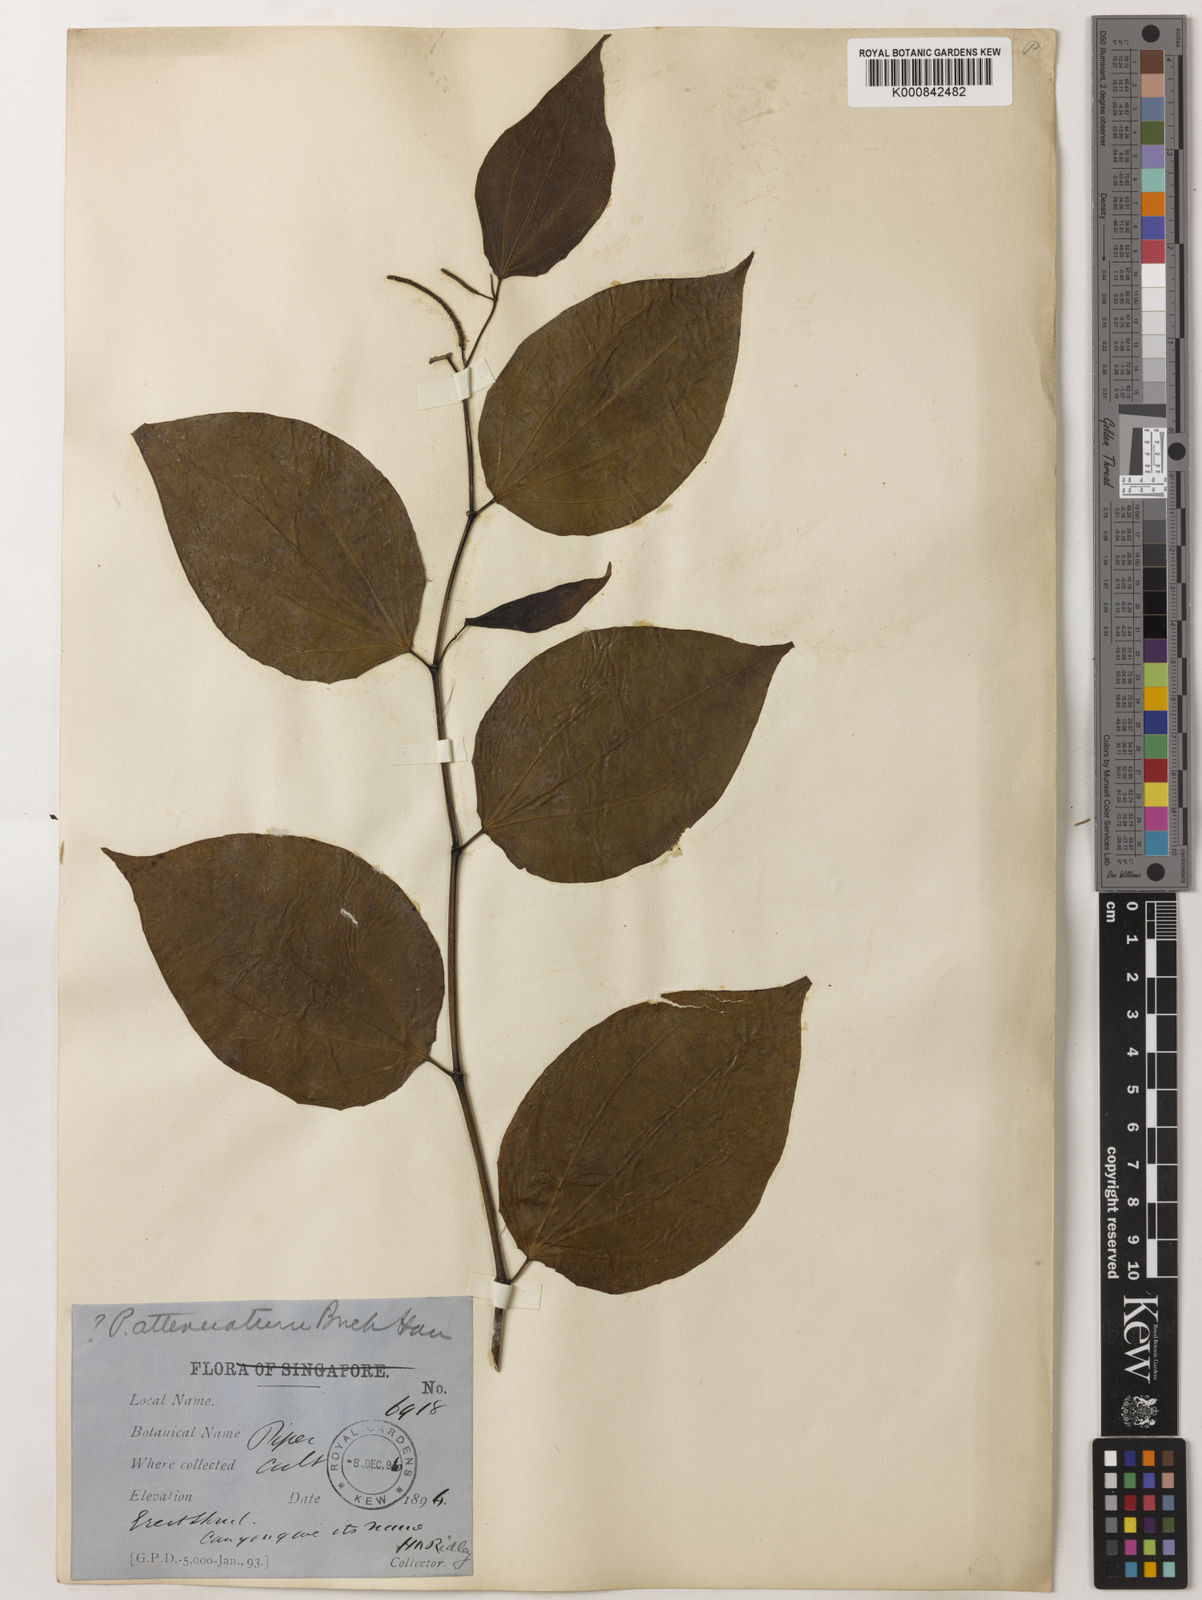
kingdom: Plantae
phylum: Tracheophyta
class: Magnoliopsida
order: Piperales
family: Piperaceae
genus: Piper
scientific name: Piper attenuatum
